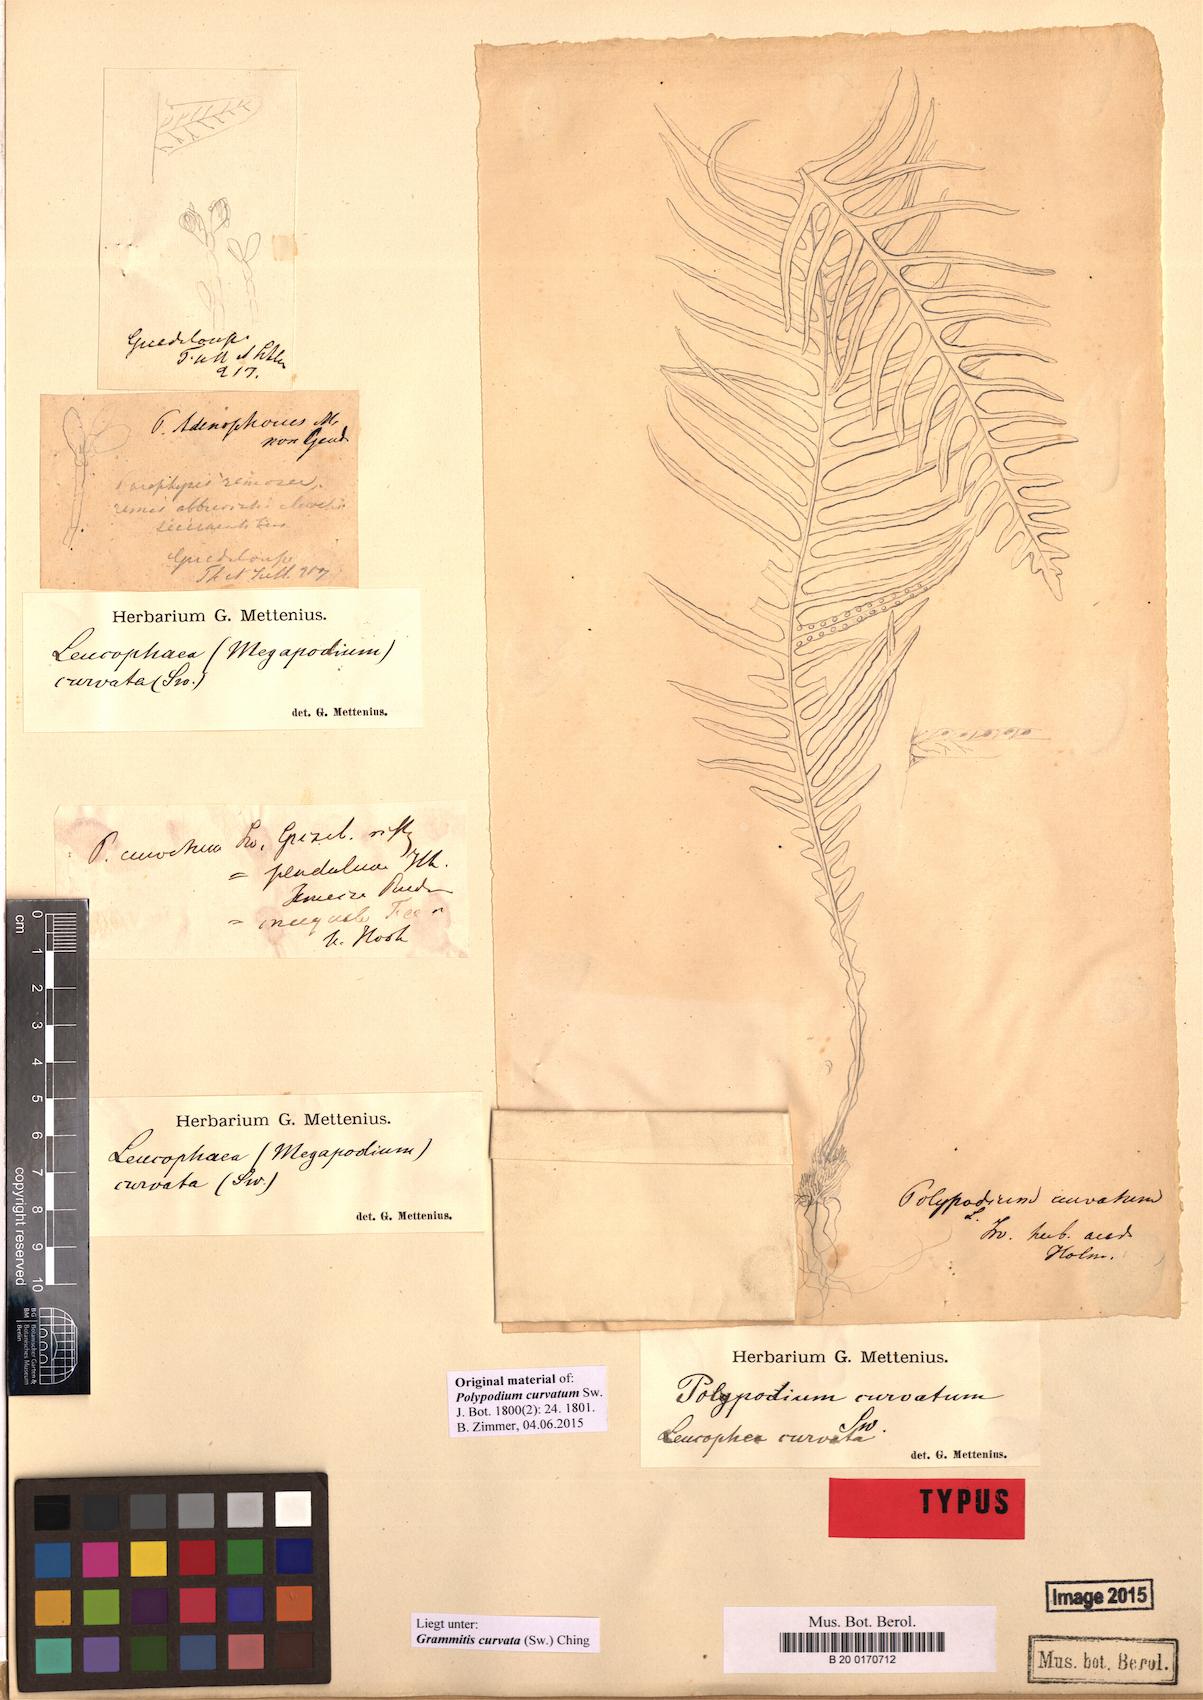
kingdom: Plantae
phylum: Tracheophyta
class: Polypodiopsida
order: Polypodiales
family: Polypodiaceae
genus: Ceradenia
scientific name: Ceradenia curvata
